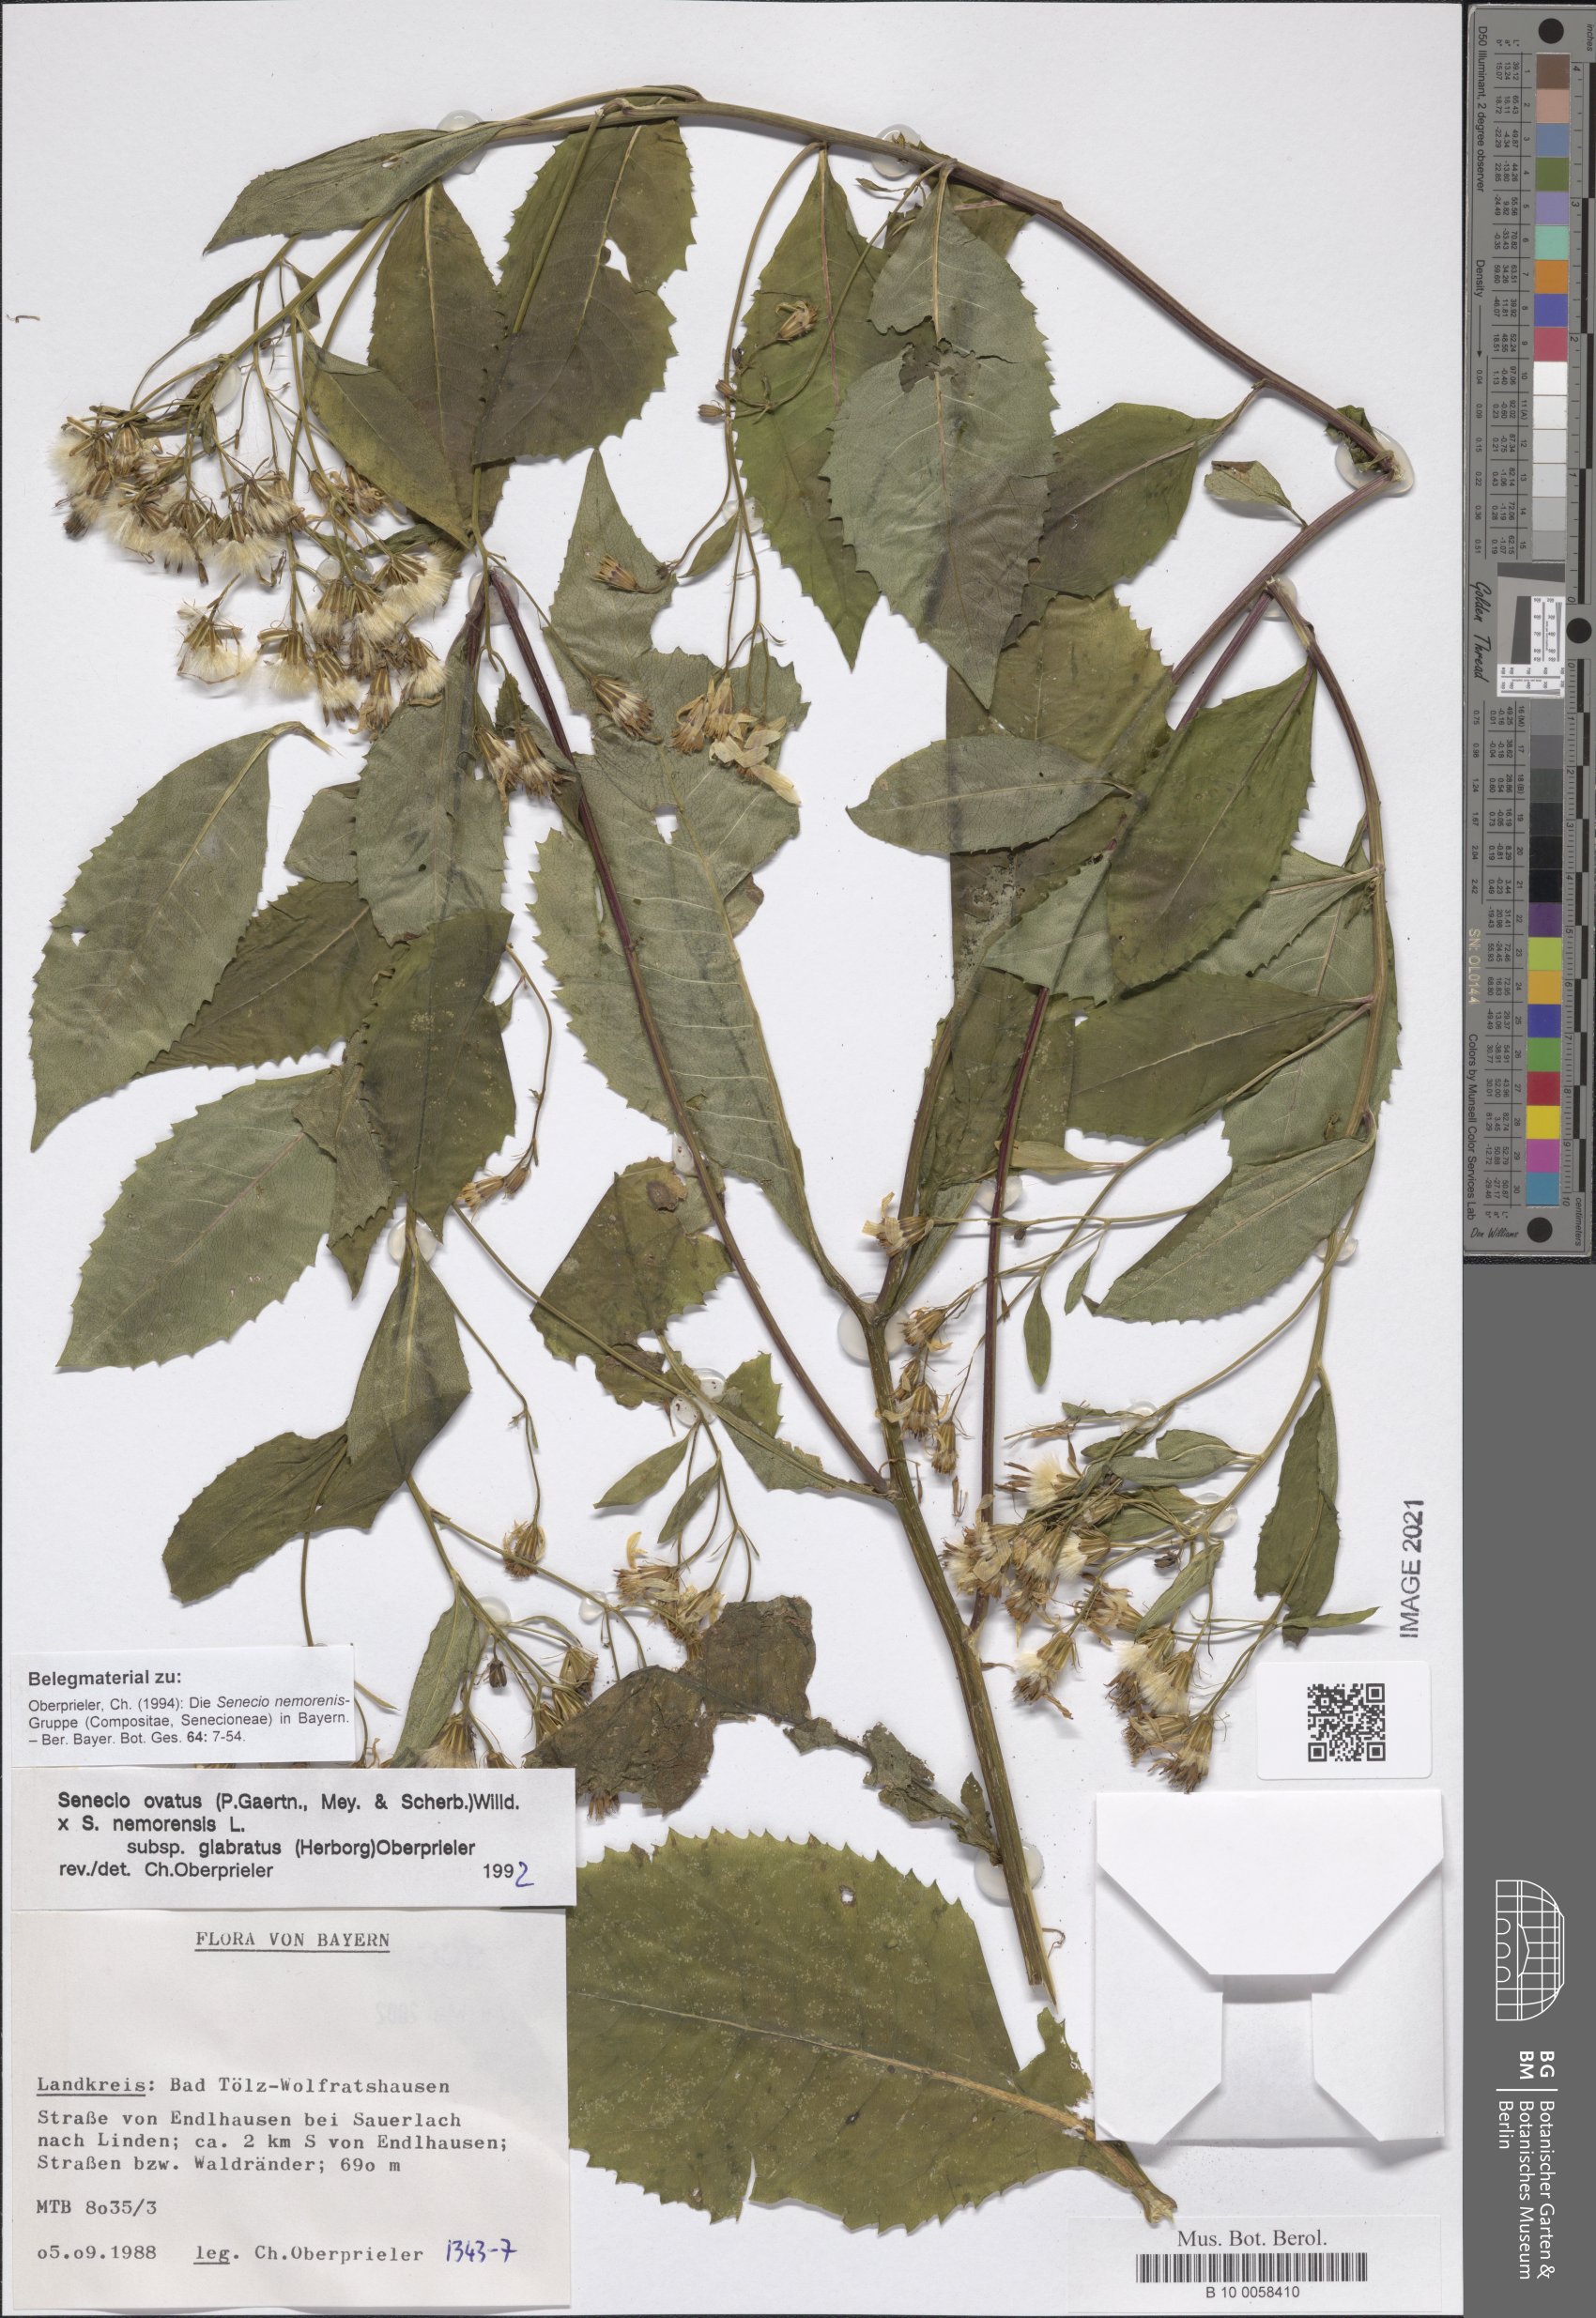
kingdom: Plantae
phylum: Tracheophyta
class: Magnoliopsida
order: Asterales
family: Asteraceae
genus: Senecio
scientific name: Senecio ovatus
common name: Wood ragwort
